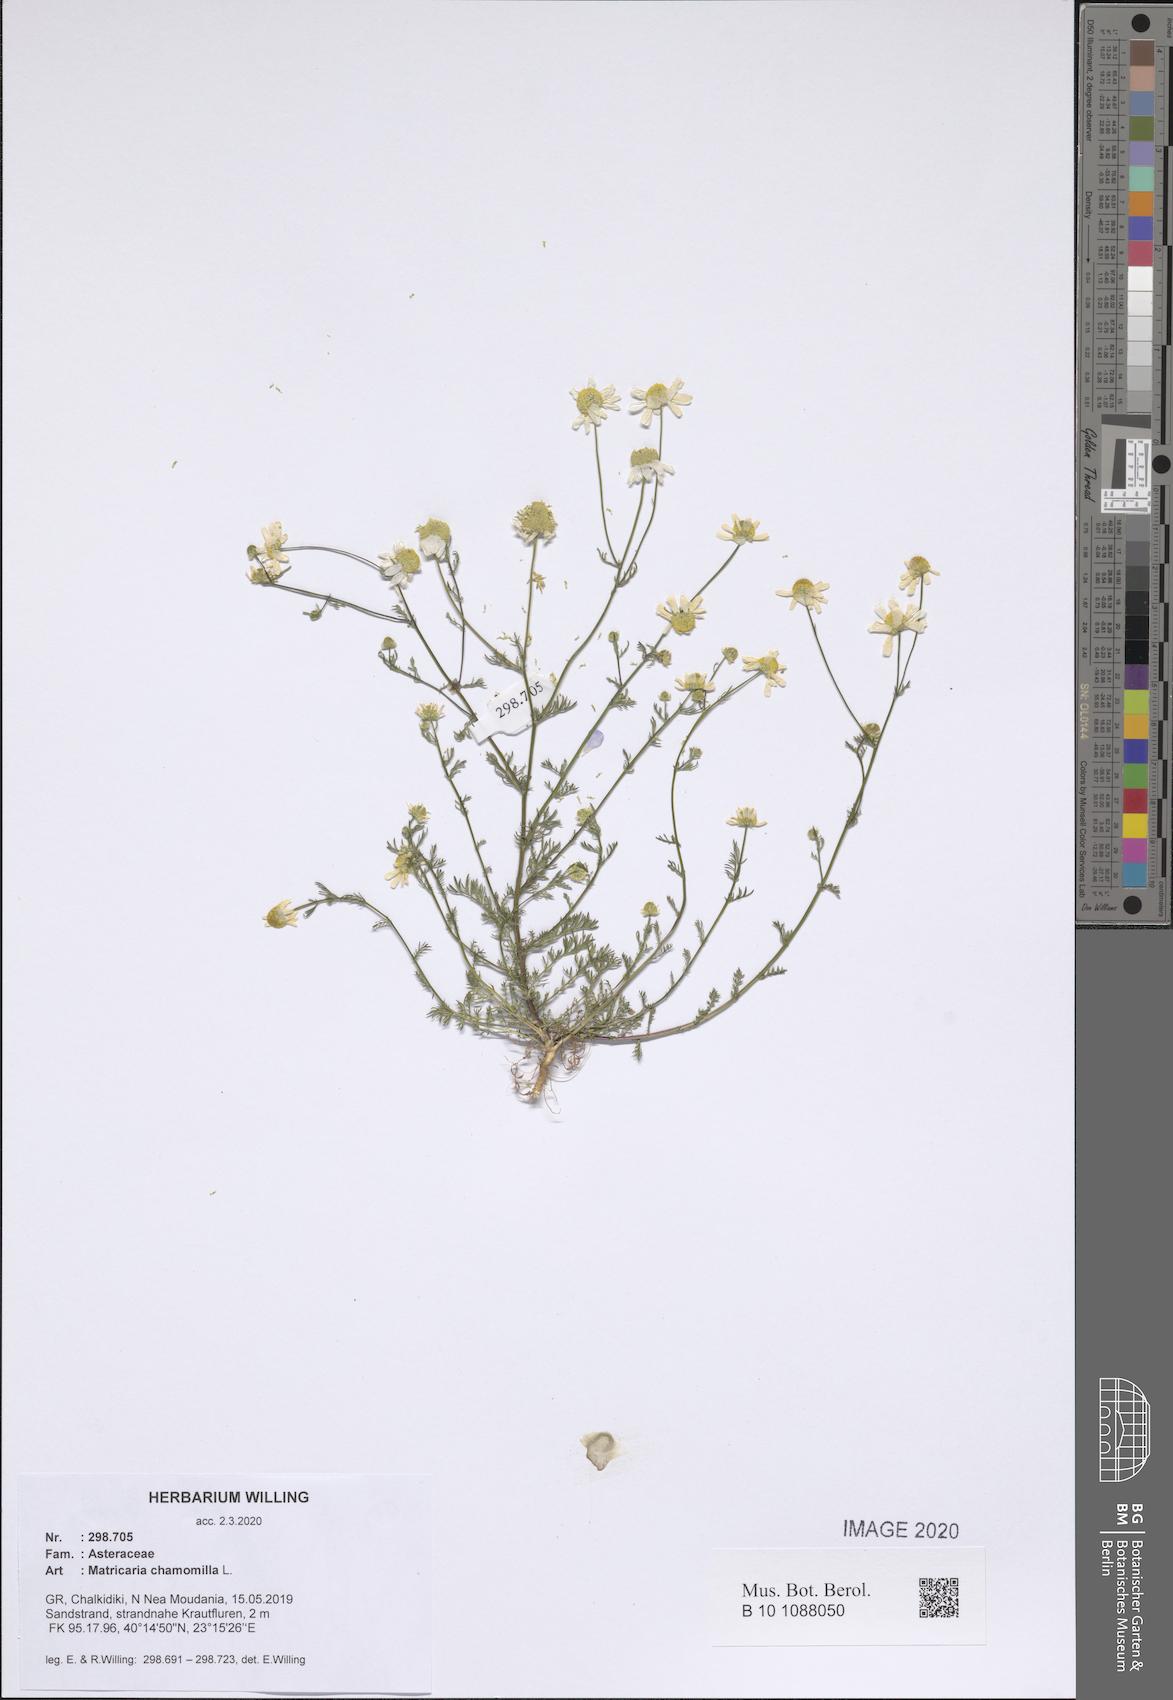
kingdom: Plantae
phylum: Tracheophyta
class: Magnoliopsida
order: Asterales
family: Asteraceae
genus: Matricaria
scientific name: Matricaria chamomilla
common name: Scented mayweed
